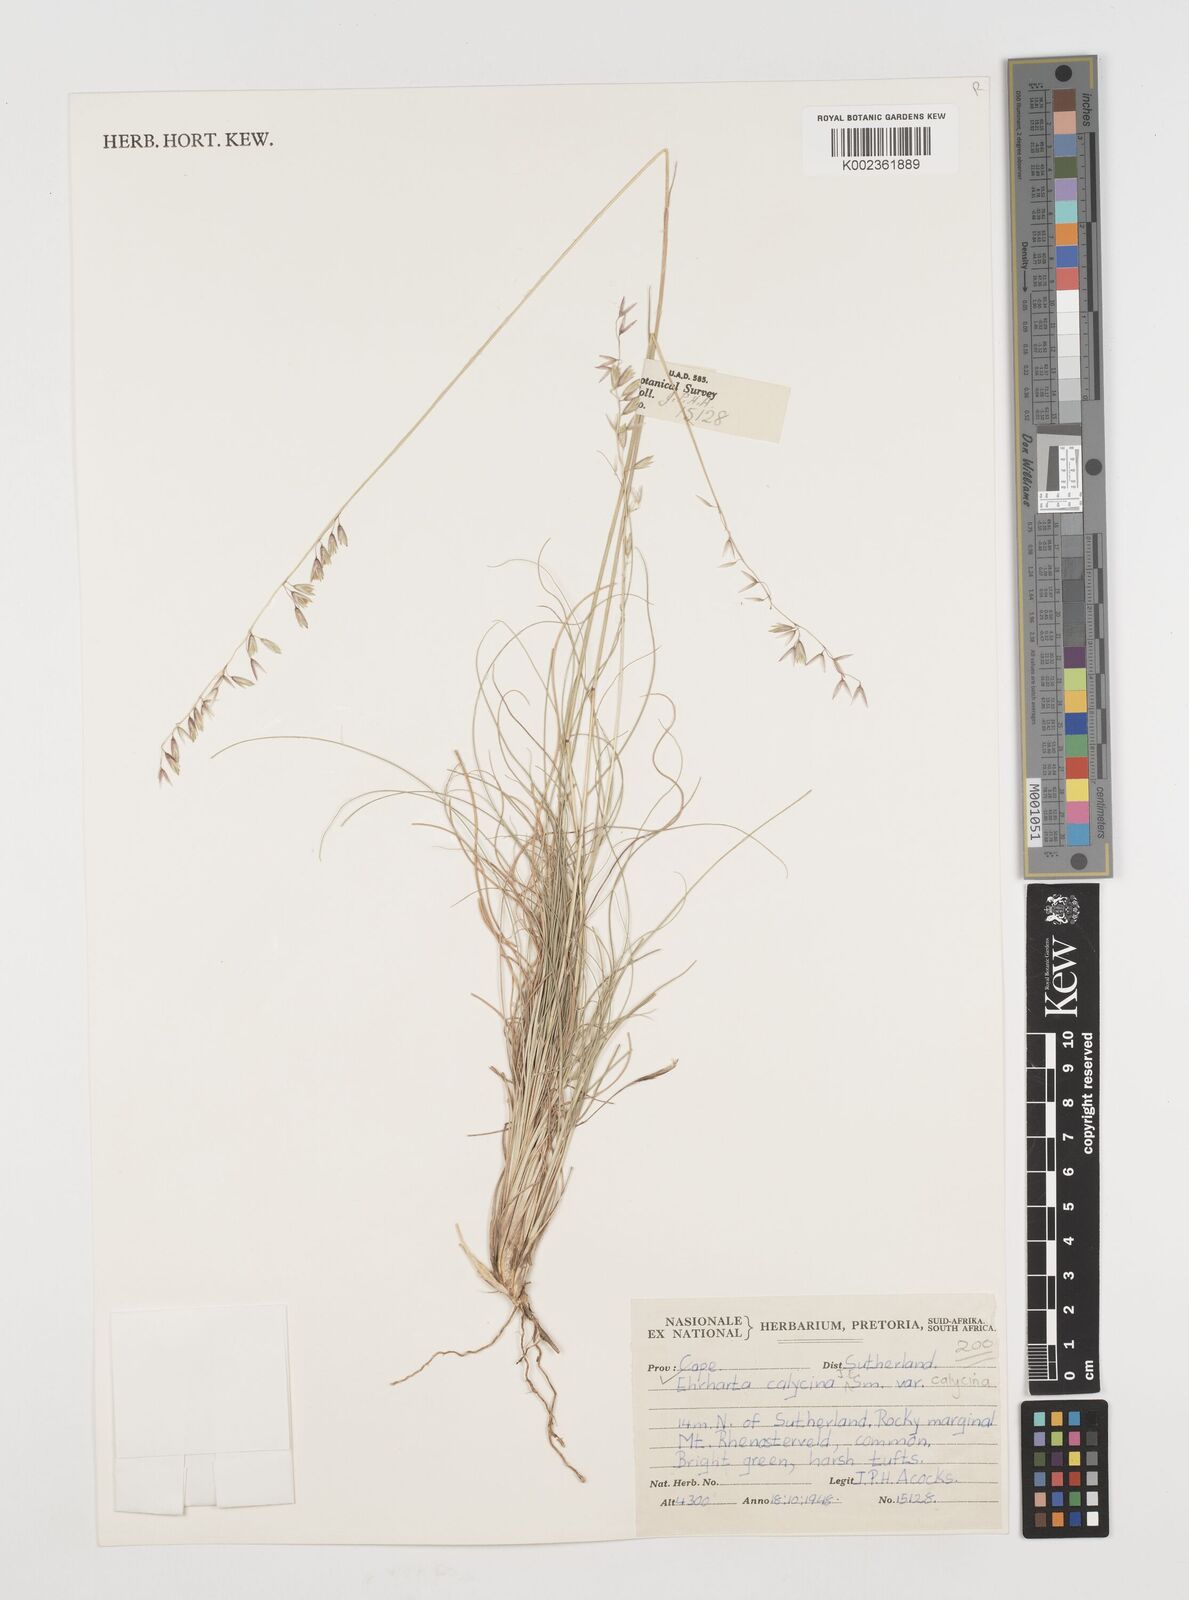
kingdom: Plantae
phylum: Tracheophyta
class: Liliopsida
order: Poales
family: Poaceae
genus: Ehrharta
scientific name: Ehrharta
